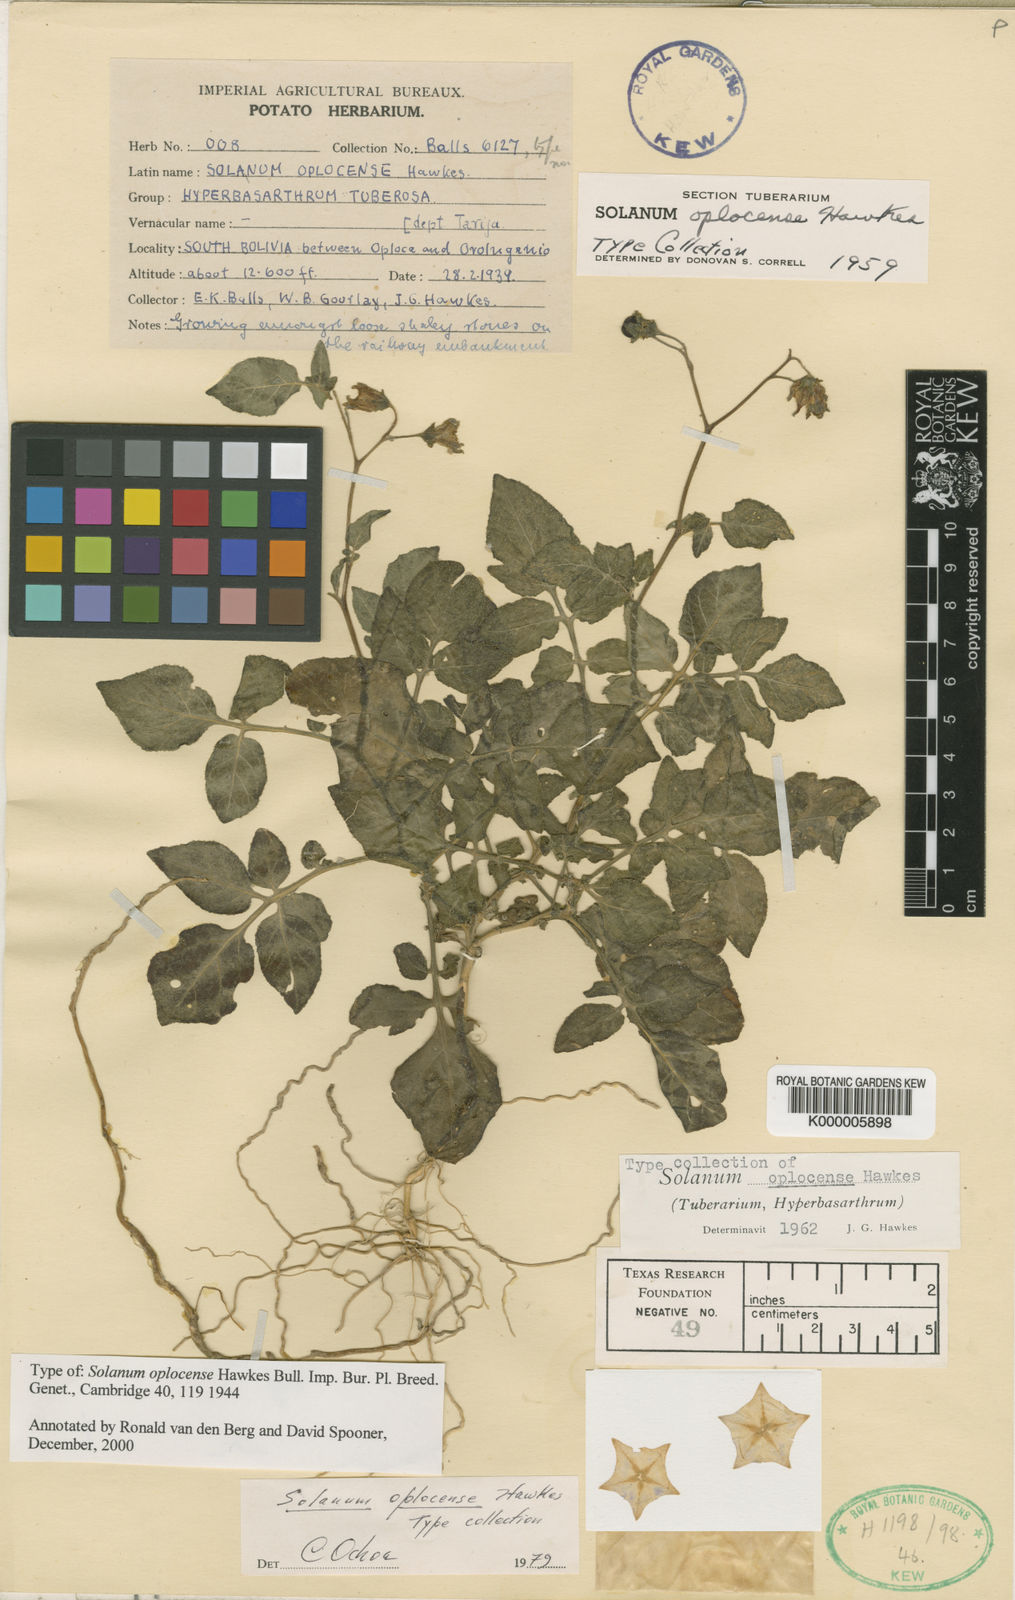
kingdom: Plantae
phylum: Tracheophyta
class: Magnoliopsida
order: Solanales
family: Solanaceae
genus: Solanum
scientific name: Solanum violaceimarmoratum
